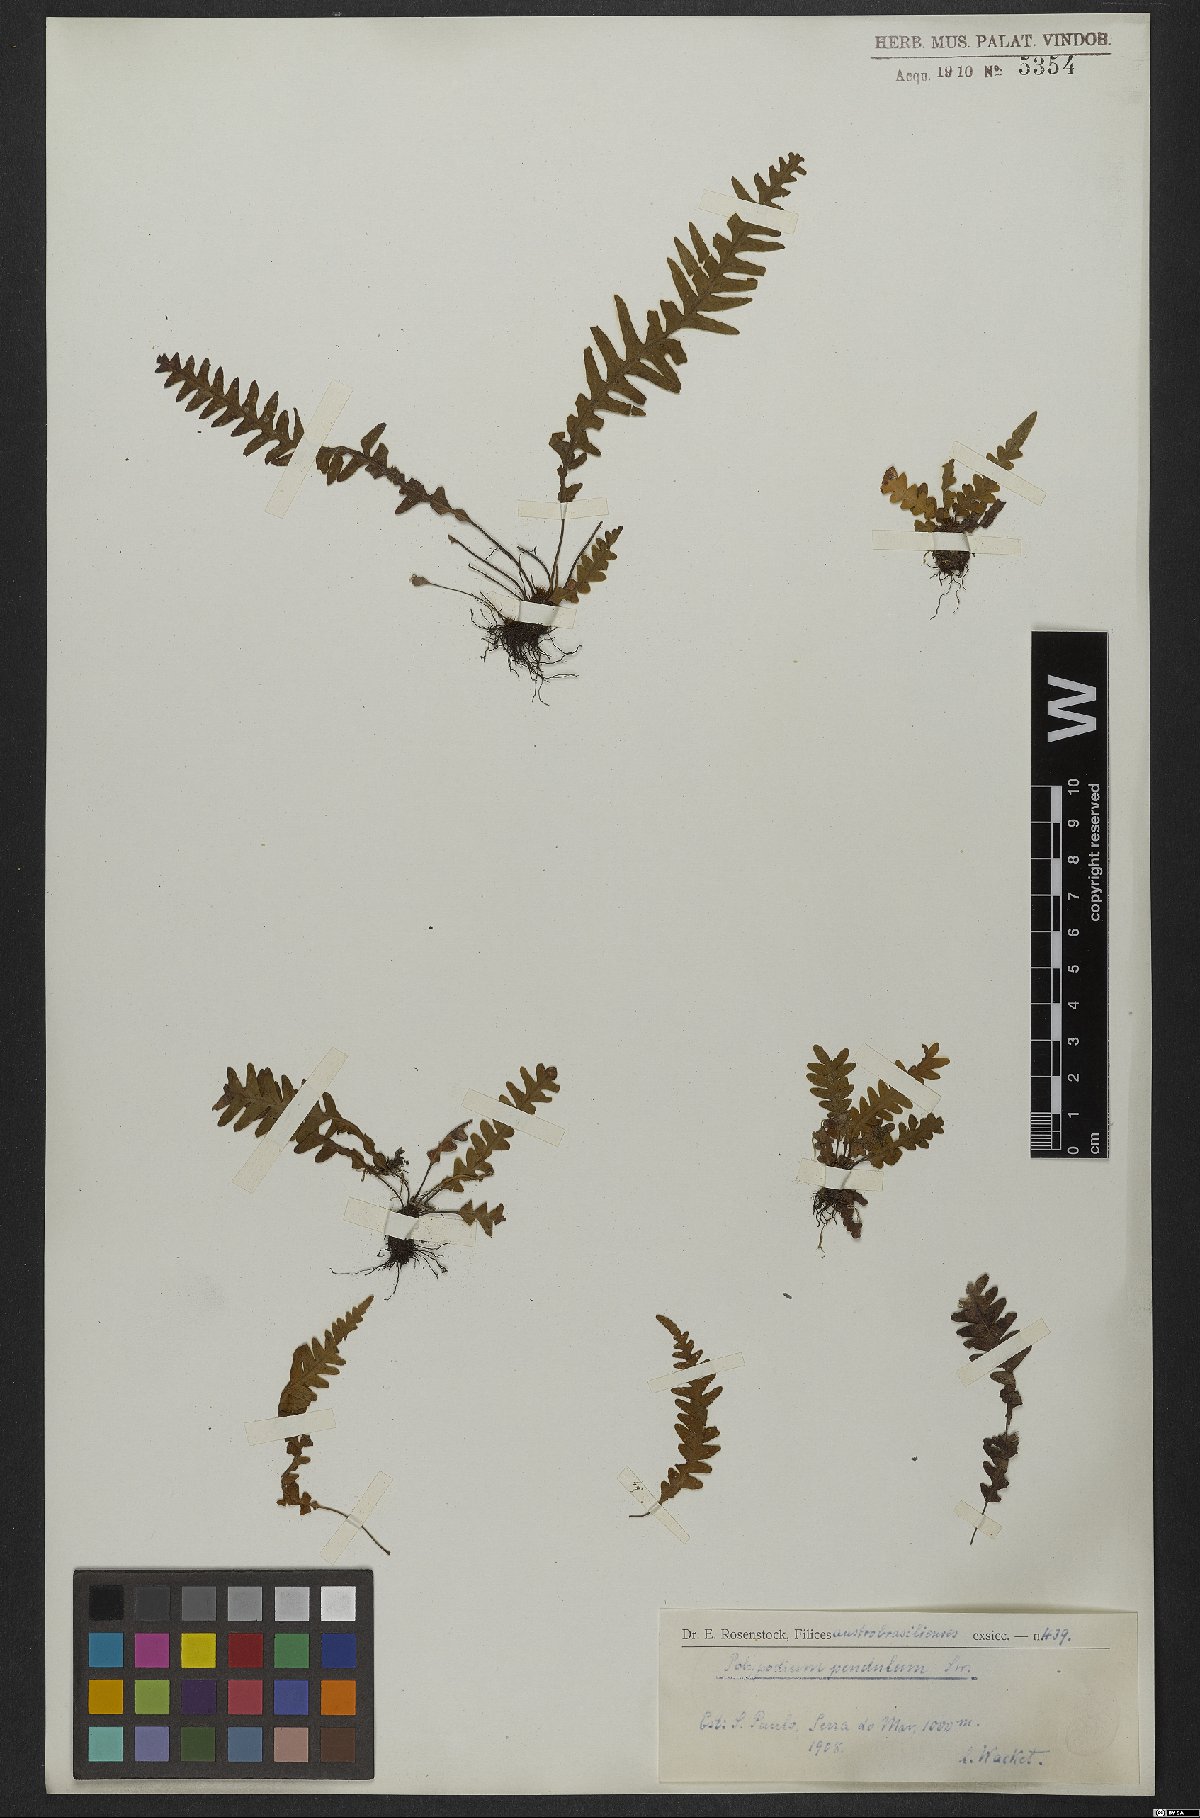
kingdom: Plantae
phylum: Tracheophyta
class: Polypodiopsida
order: Polypodiales
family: Polypodiaceae
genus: Lellingeria
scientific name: Lellingeria pendula
